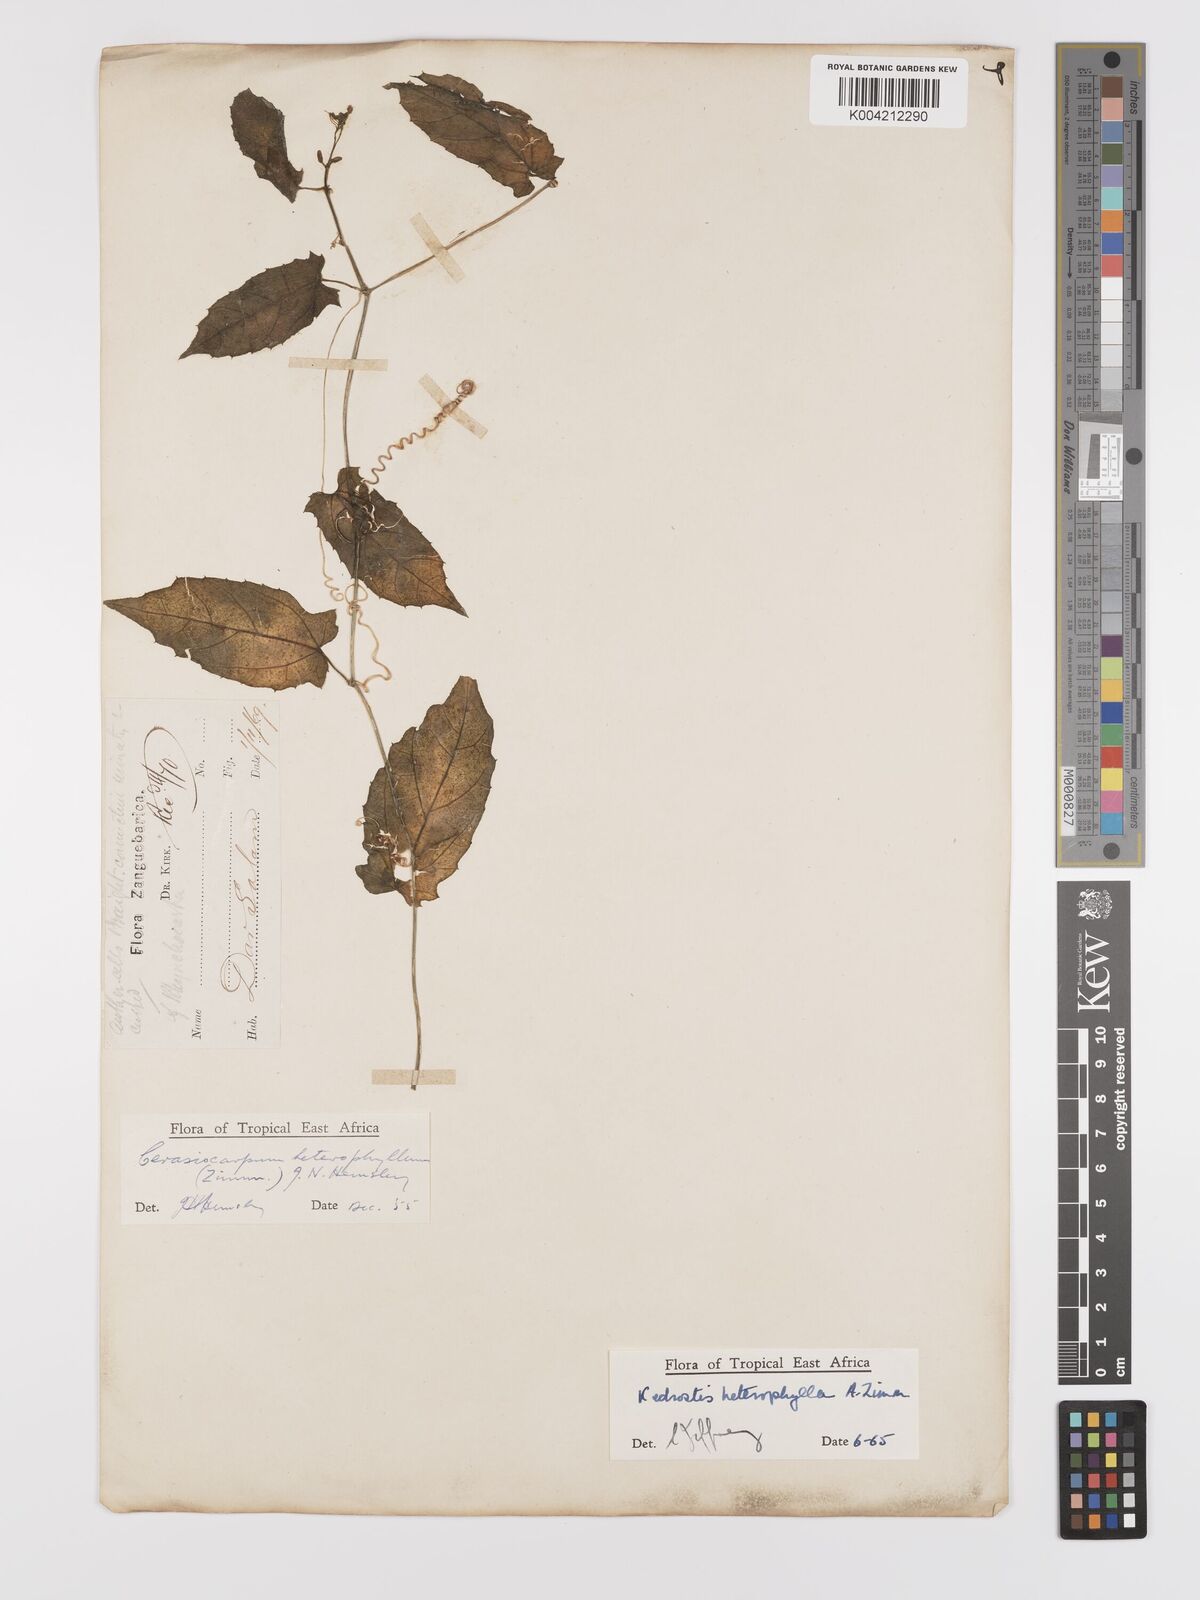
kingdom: Plantae
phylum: Tracheophyta
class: Magnoliopsida
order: Cucurbitales
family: Cucurbitaceae
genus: Kedrostis
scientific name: Kedrostis heterophylla
